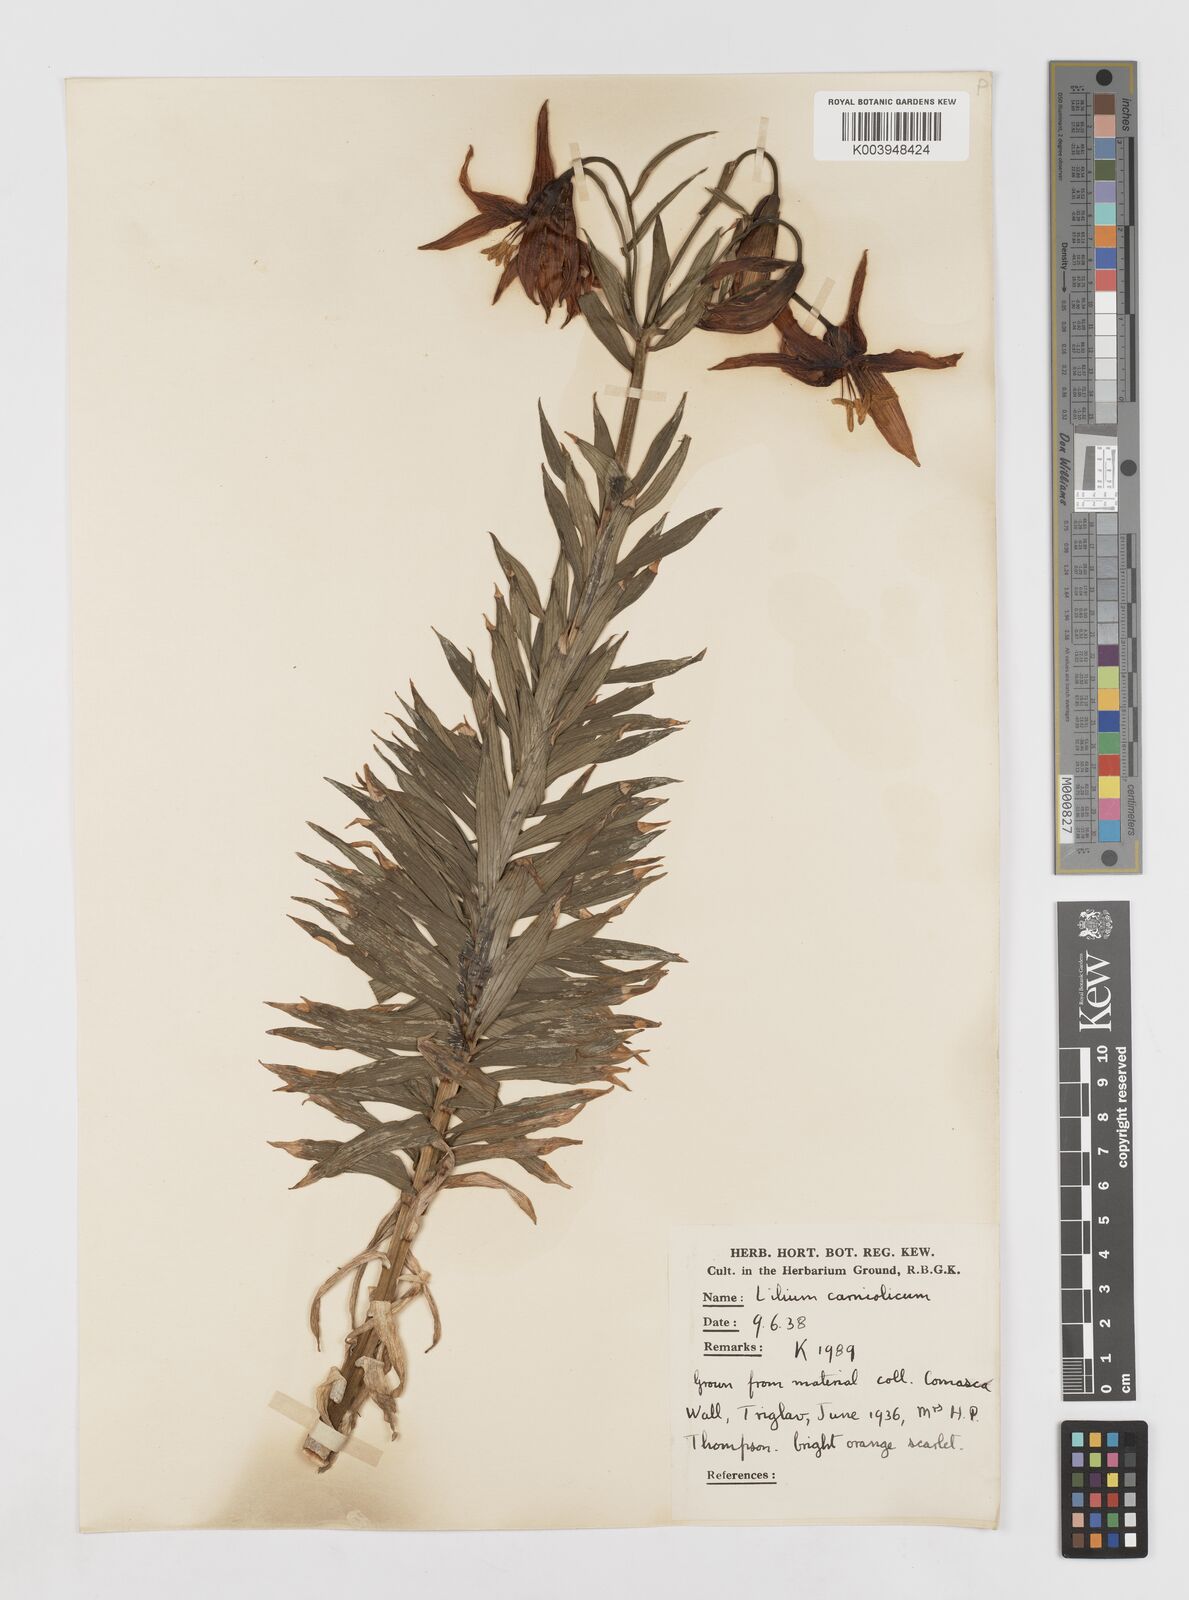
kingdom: Plantae
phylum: Tracheophyta
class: Liliopsida
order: Liliales
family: Liliaceae
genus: Lilium
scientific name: Lilium carniolicum
